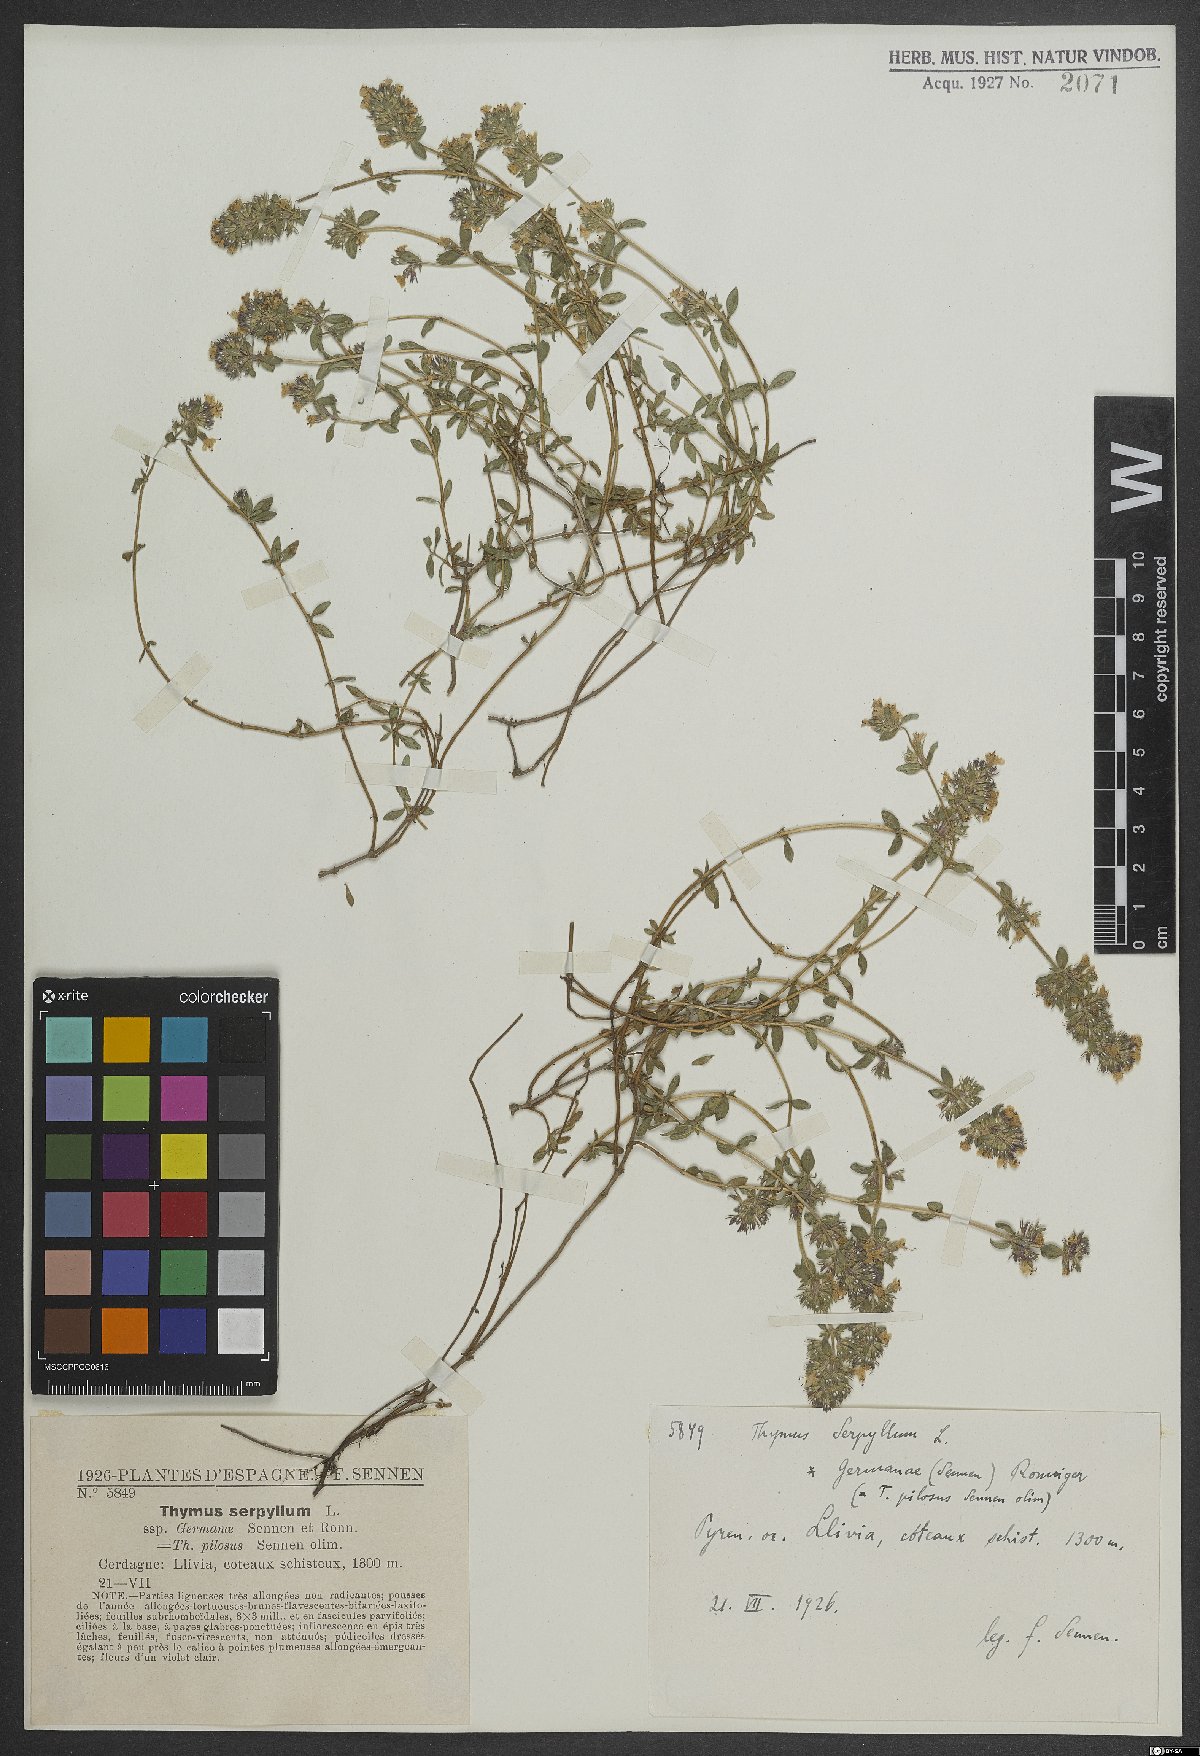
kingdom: Plantae
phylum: Tracheophyta
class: Magnoliopsida
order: Lamiales
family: Lamiaceae
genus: Thymus
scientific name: Thymus serpyllum
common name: Breckland thyme
